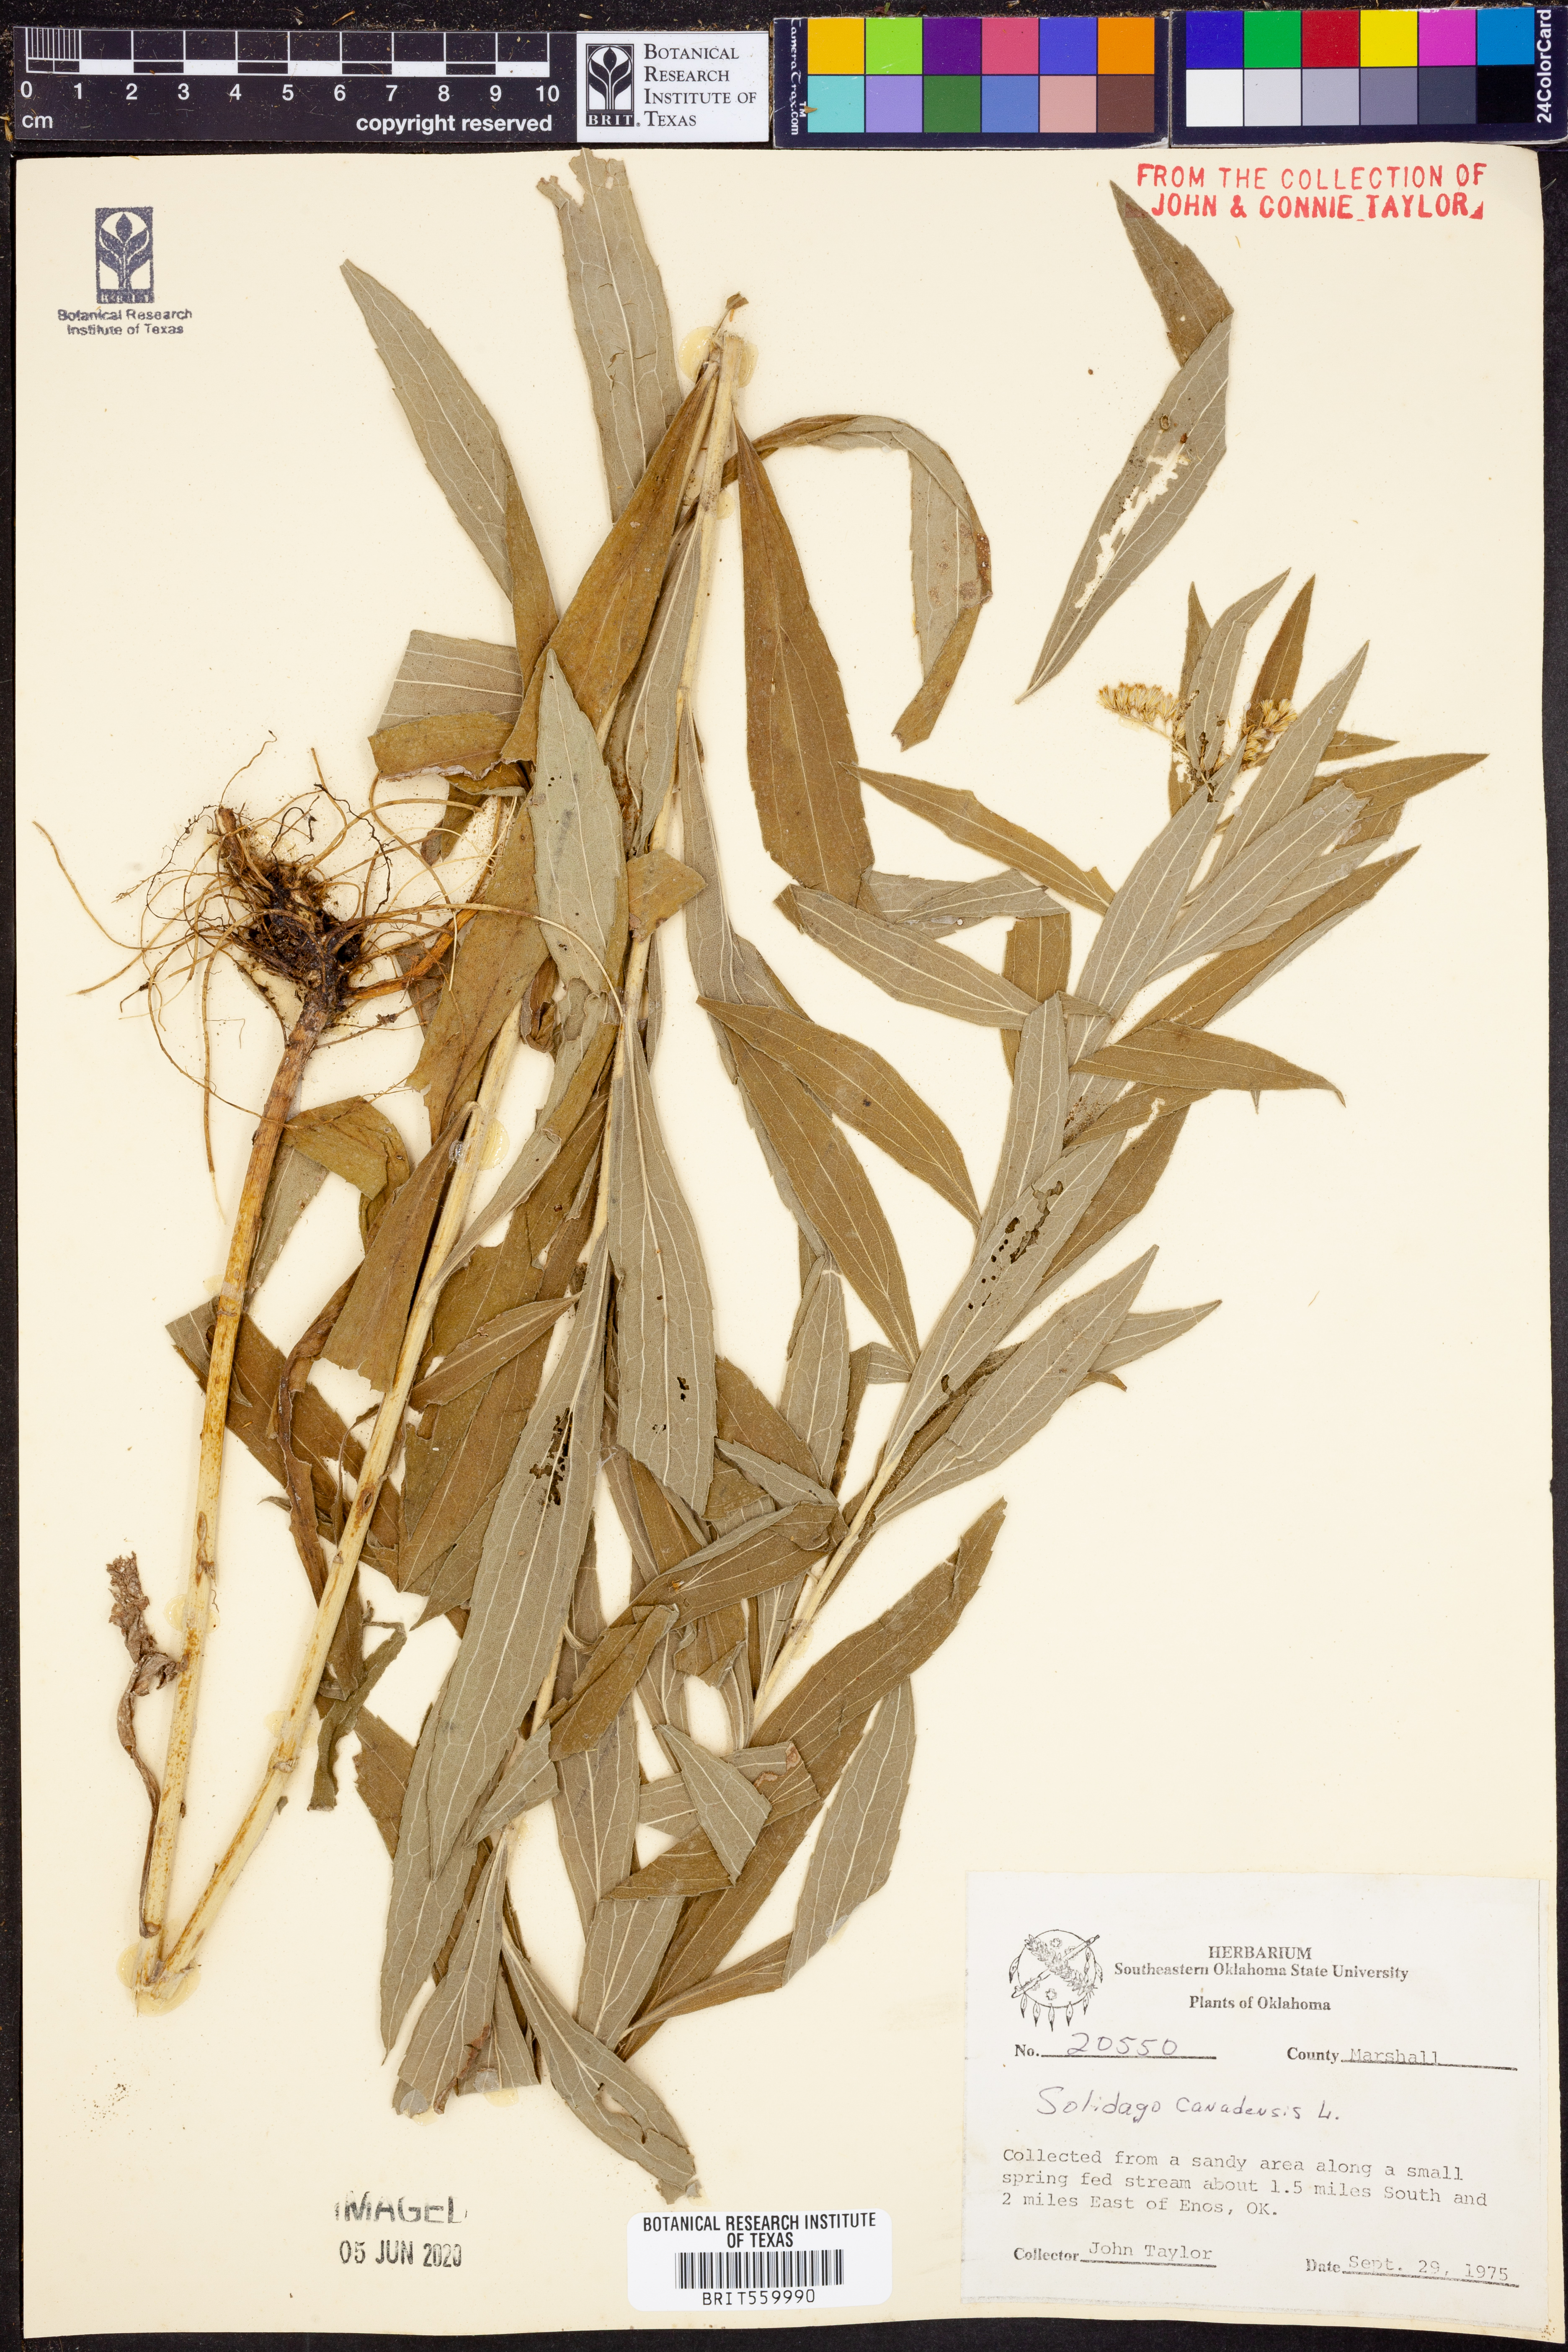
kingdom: Plantae
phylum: Tracheophyta
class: Magnoliopsida
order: Asterales
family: Asteraceae
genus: Solidago
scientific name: Solidago canadensis
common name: Canada goldenrod
